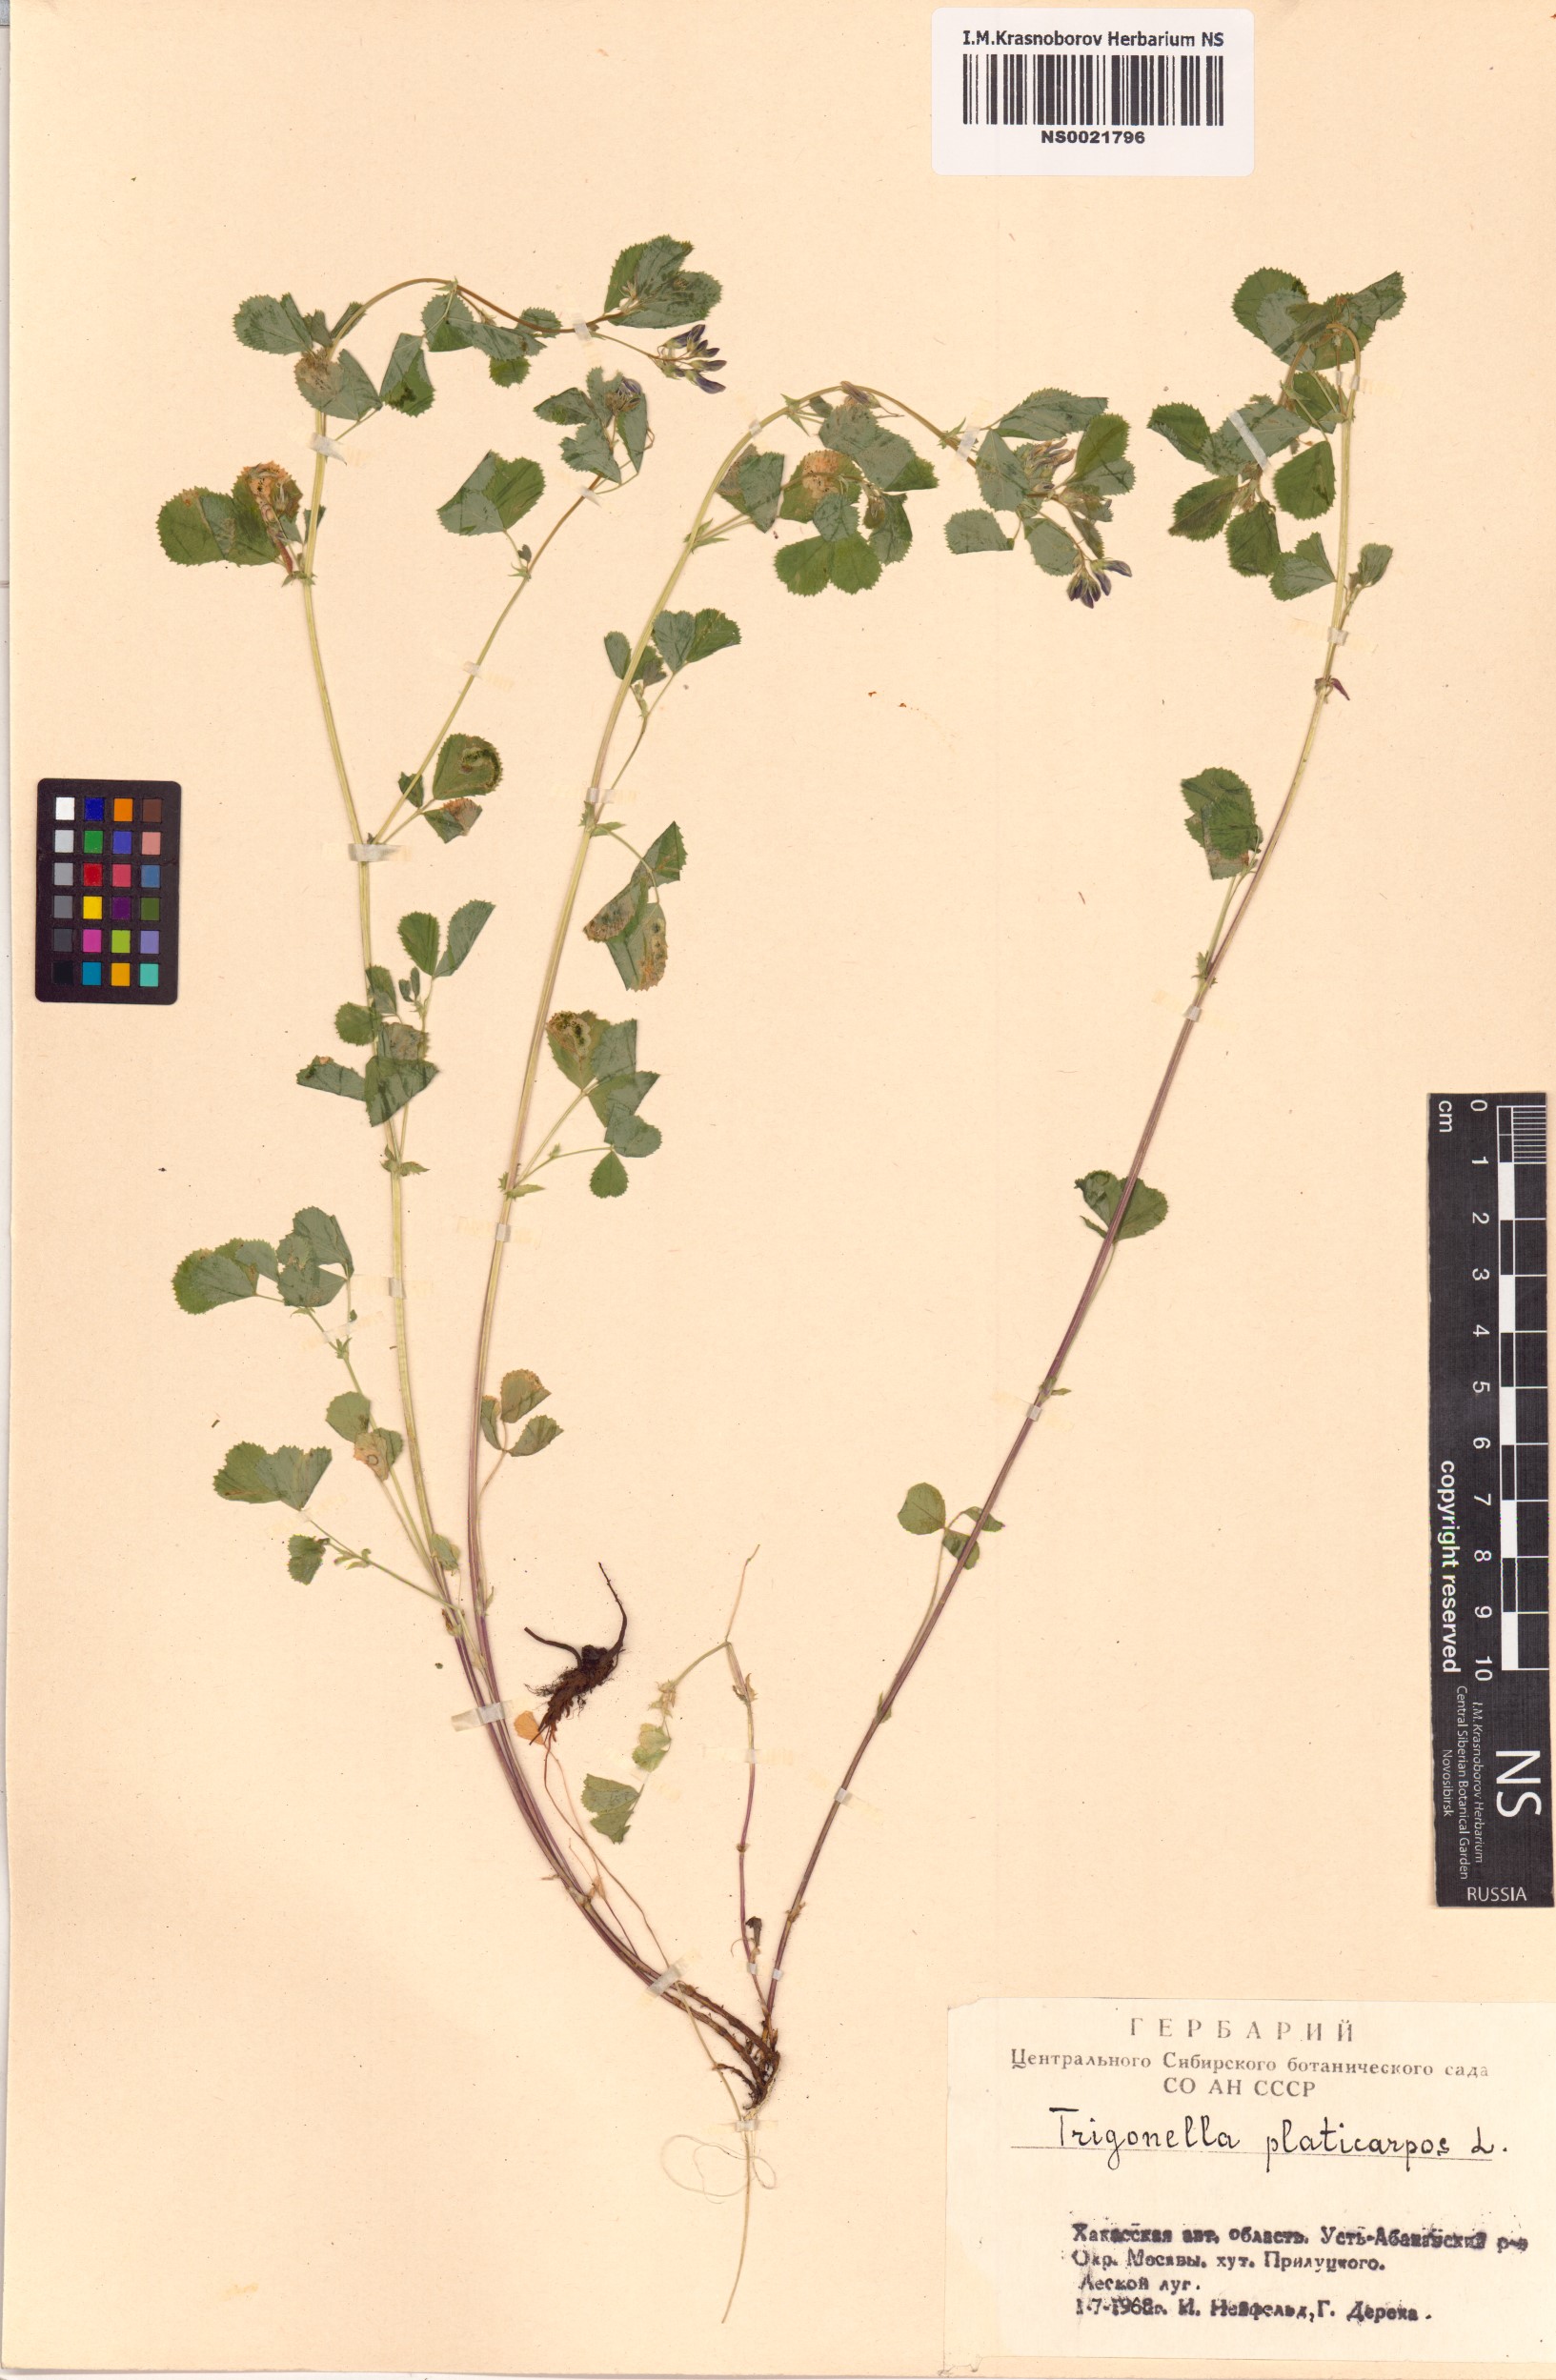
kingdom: Plantae
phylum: Tracheophyta
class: Magnoliopsida
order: Fabales
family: Fabaceae
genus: Medicago
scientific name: Medicago platycarpos
